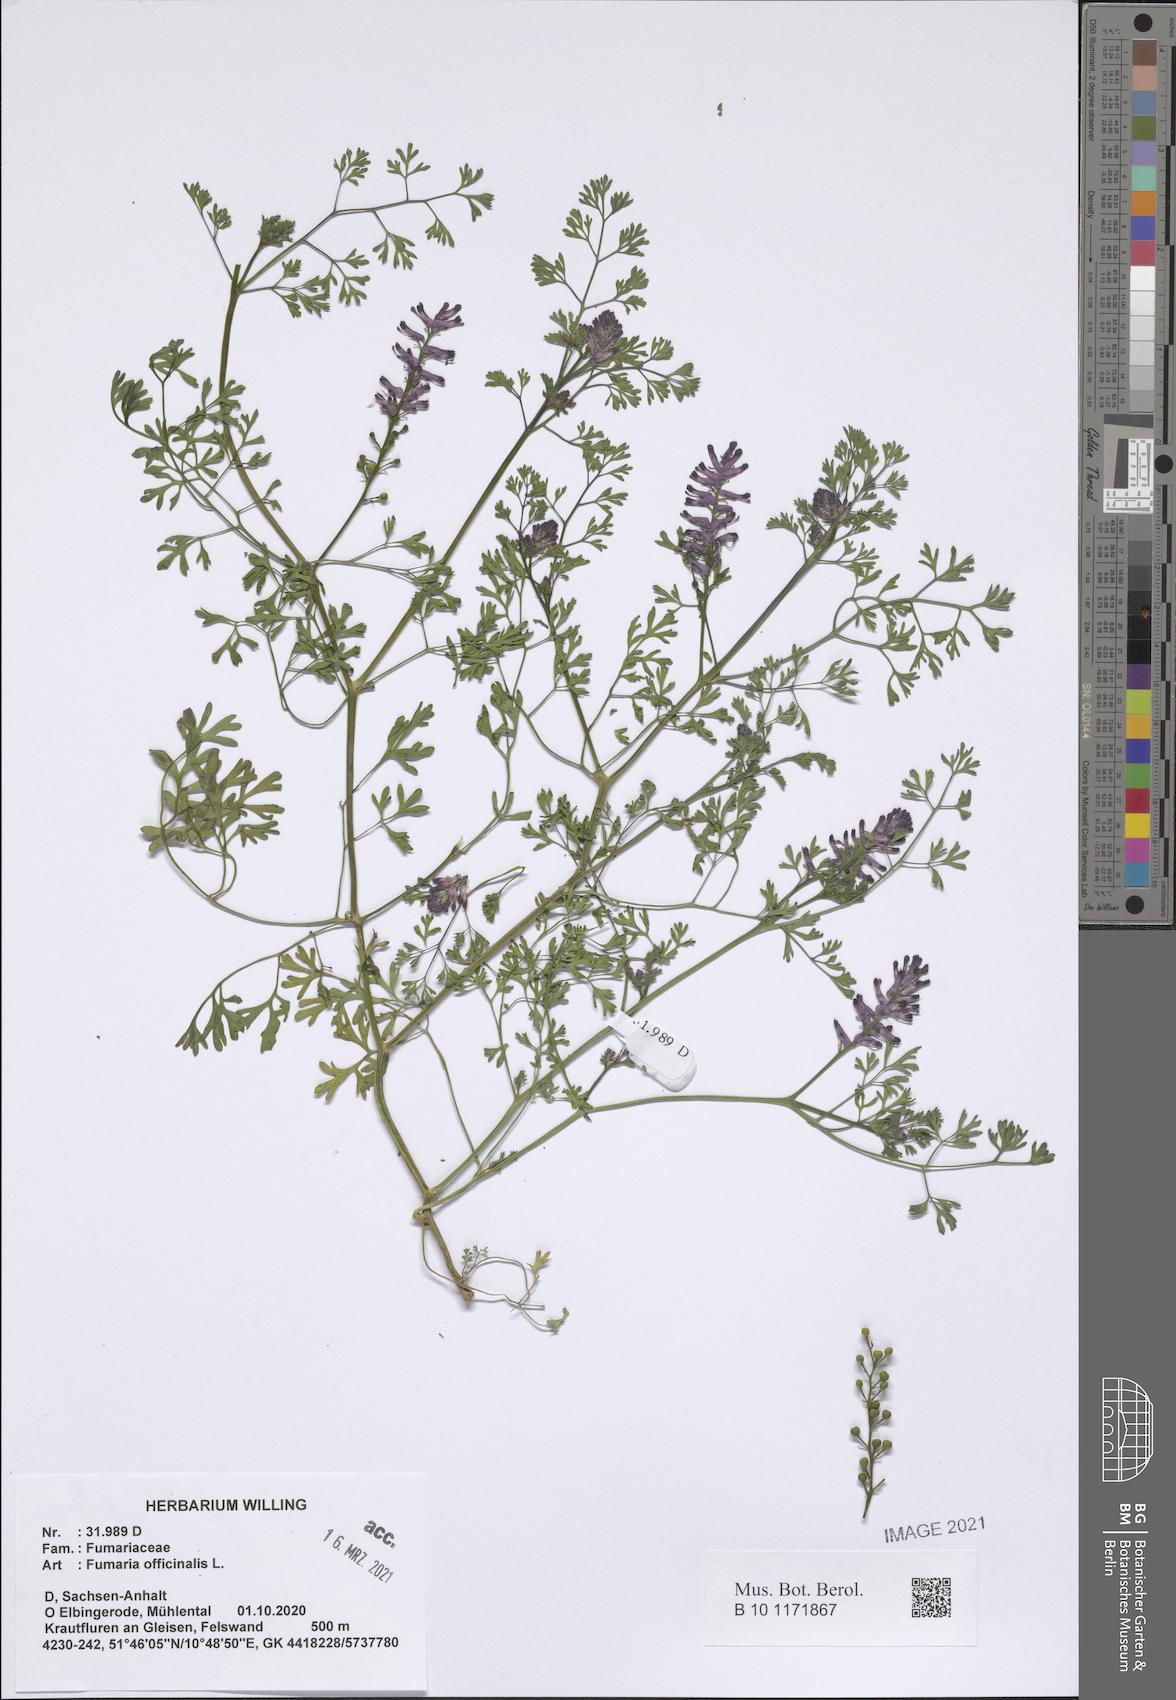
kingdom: Plantae
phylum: Tracheophyta
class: Magnoliopsida
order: Ranunculales
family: Papaveraceae
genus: Fumaria
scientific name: Fumaria officinalis
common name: Common fumitory
